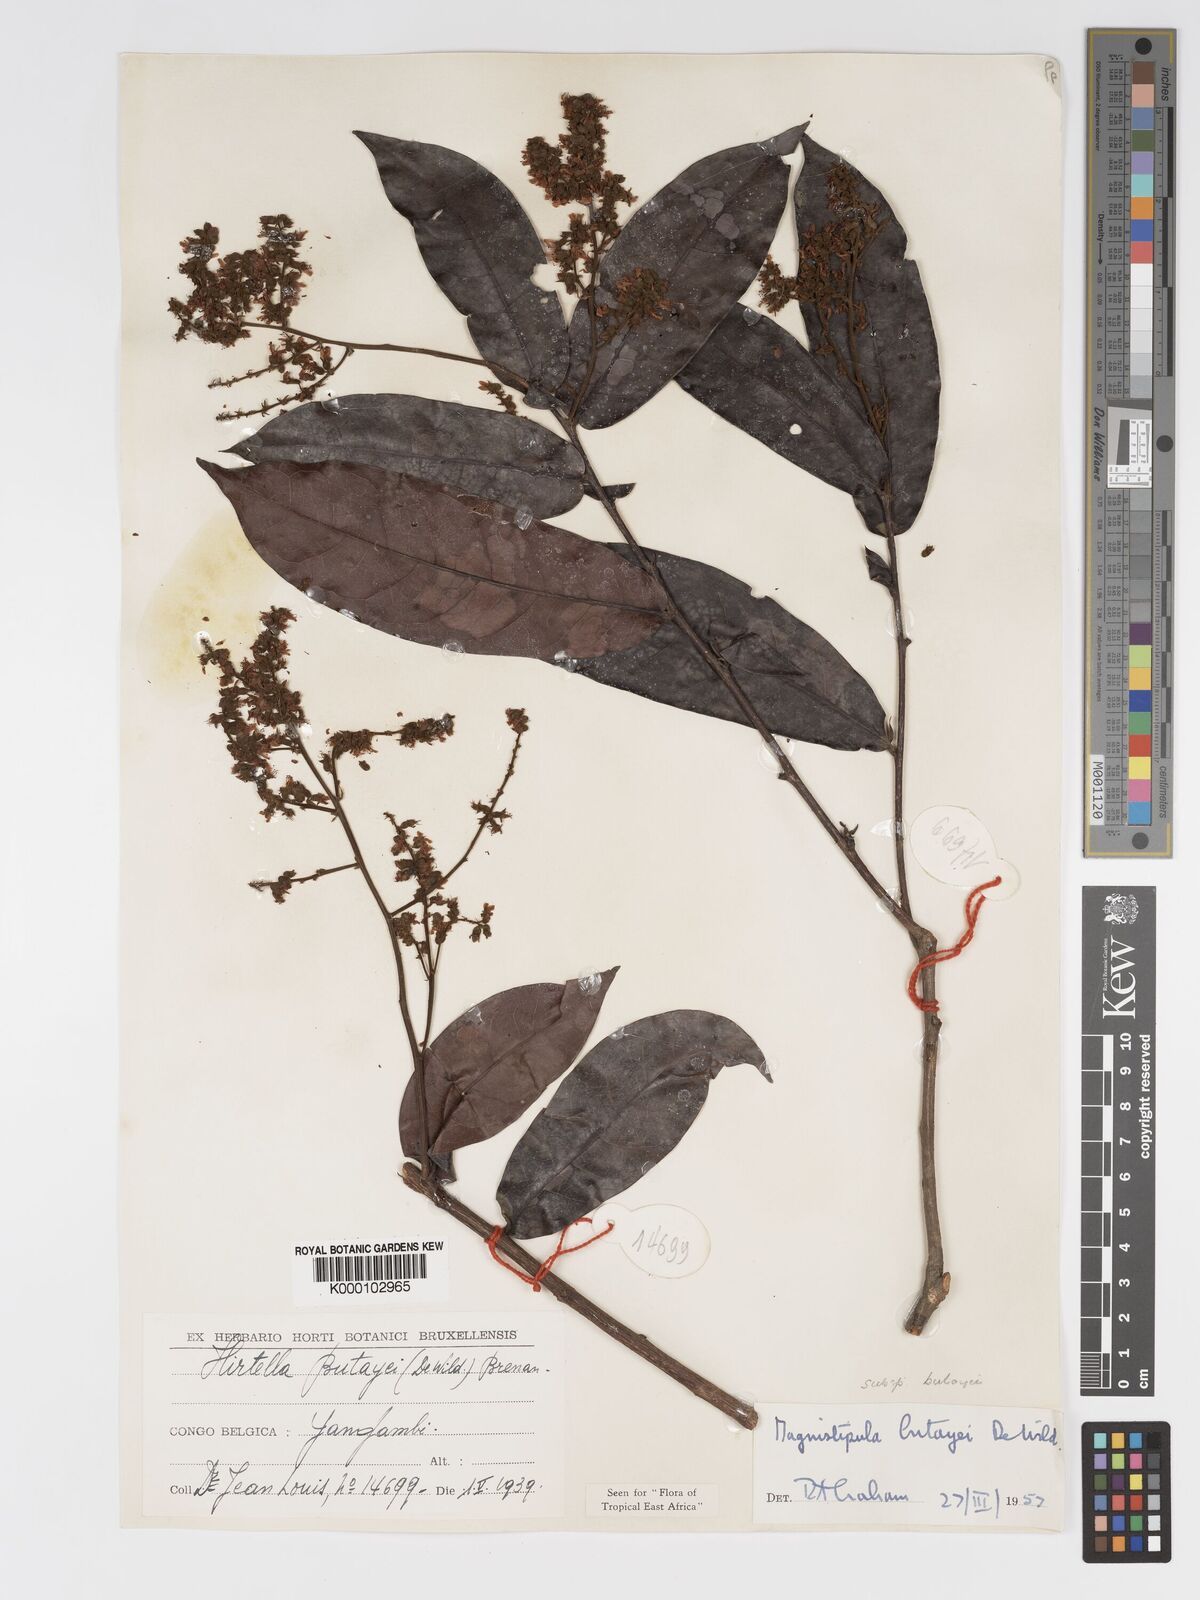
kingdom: Plantae
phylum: Tracheophyta
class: Magnoliopsida
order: Malpighiales
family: Chrysobalanaceae
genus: Magnistipula
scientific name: Magnistipula butayei
